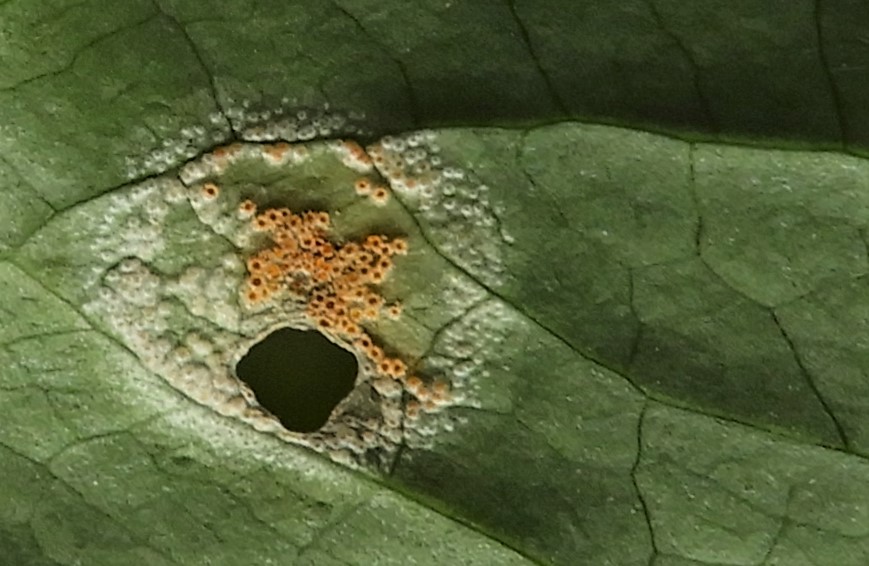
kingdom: Fungi
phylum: Basidiomycota
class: Pucciniomycetes
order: Pucciniales
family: Pucciniaceae
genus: Puccinia
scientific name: Puccinia sessilis
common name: Arum rust
